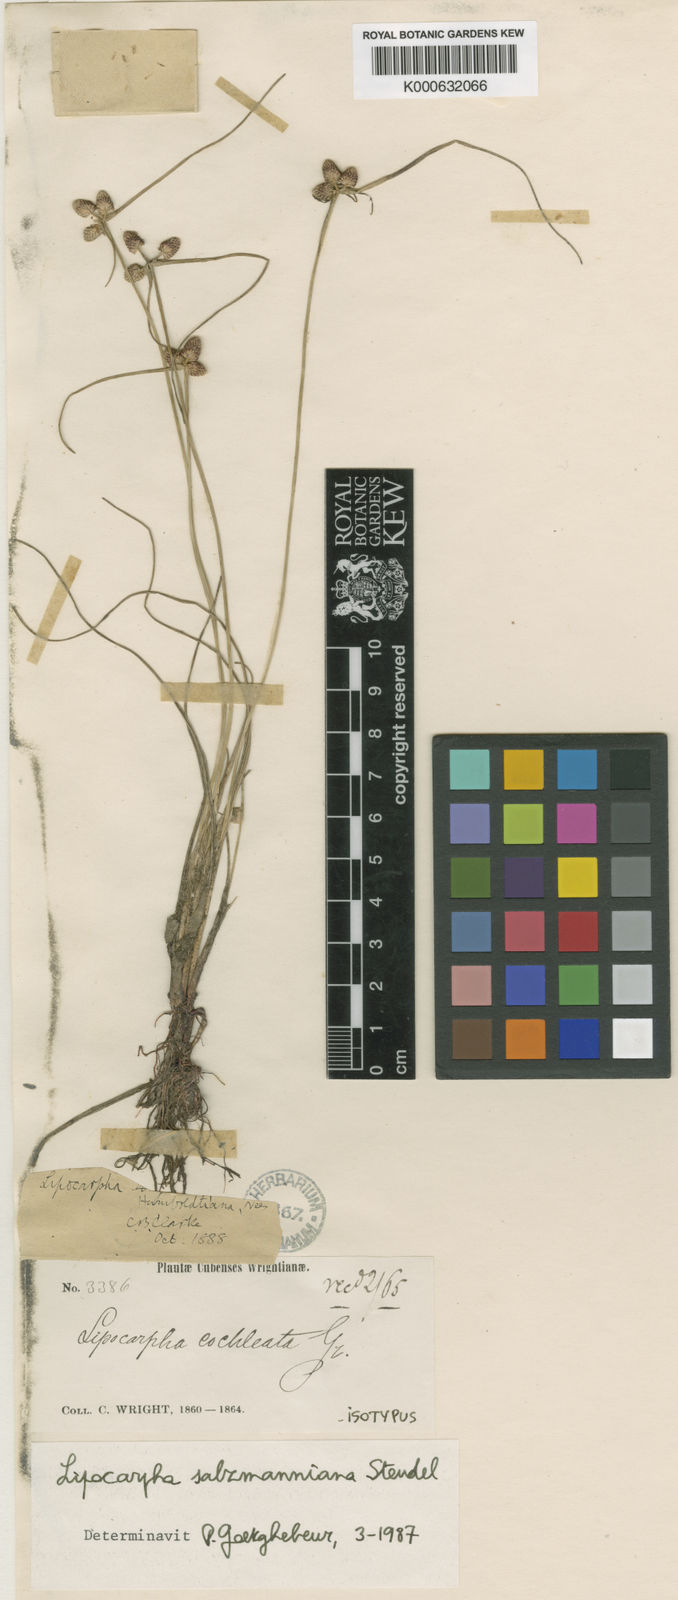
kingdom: Plantae
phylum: Tracheophyta
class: Liliopsida
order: Poales
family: Cyperaceae
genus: Cyperus
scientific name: Cyperus salzmannianus
